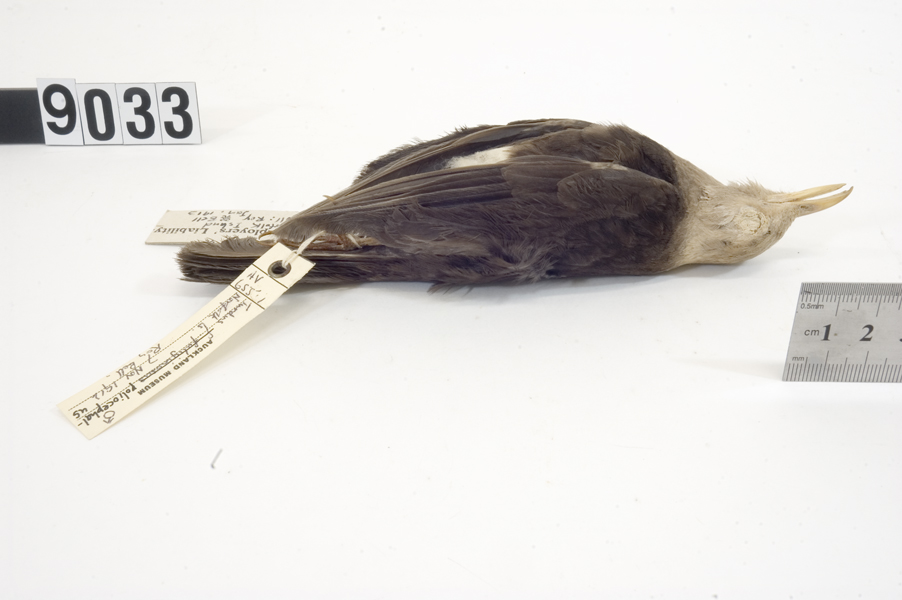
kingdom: Animalia
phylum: Chordata
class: Aves
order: Passeriformes
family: Turdidae
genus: Turdus
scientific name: Turdus poliocephalus
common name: Island thrush
